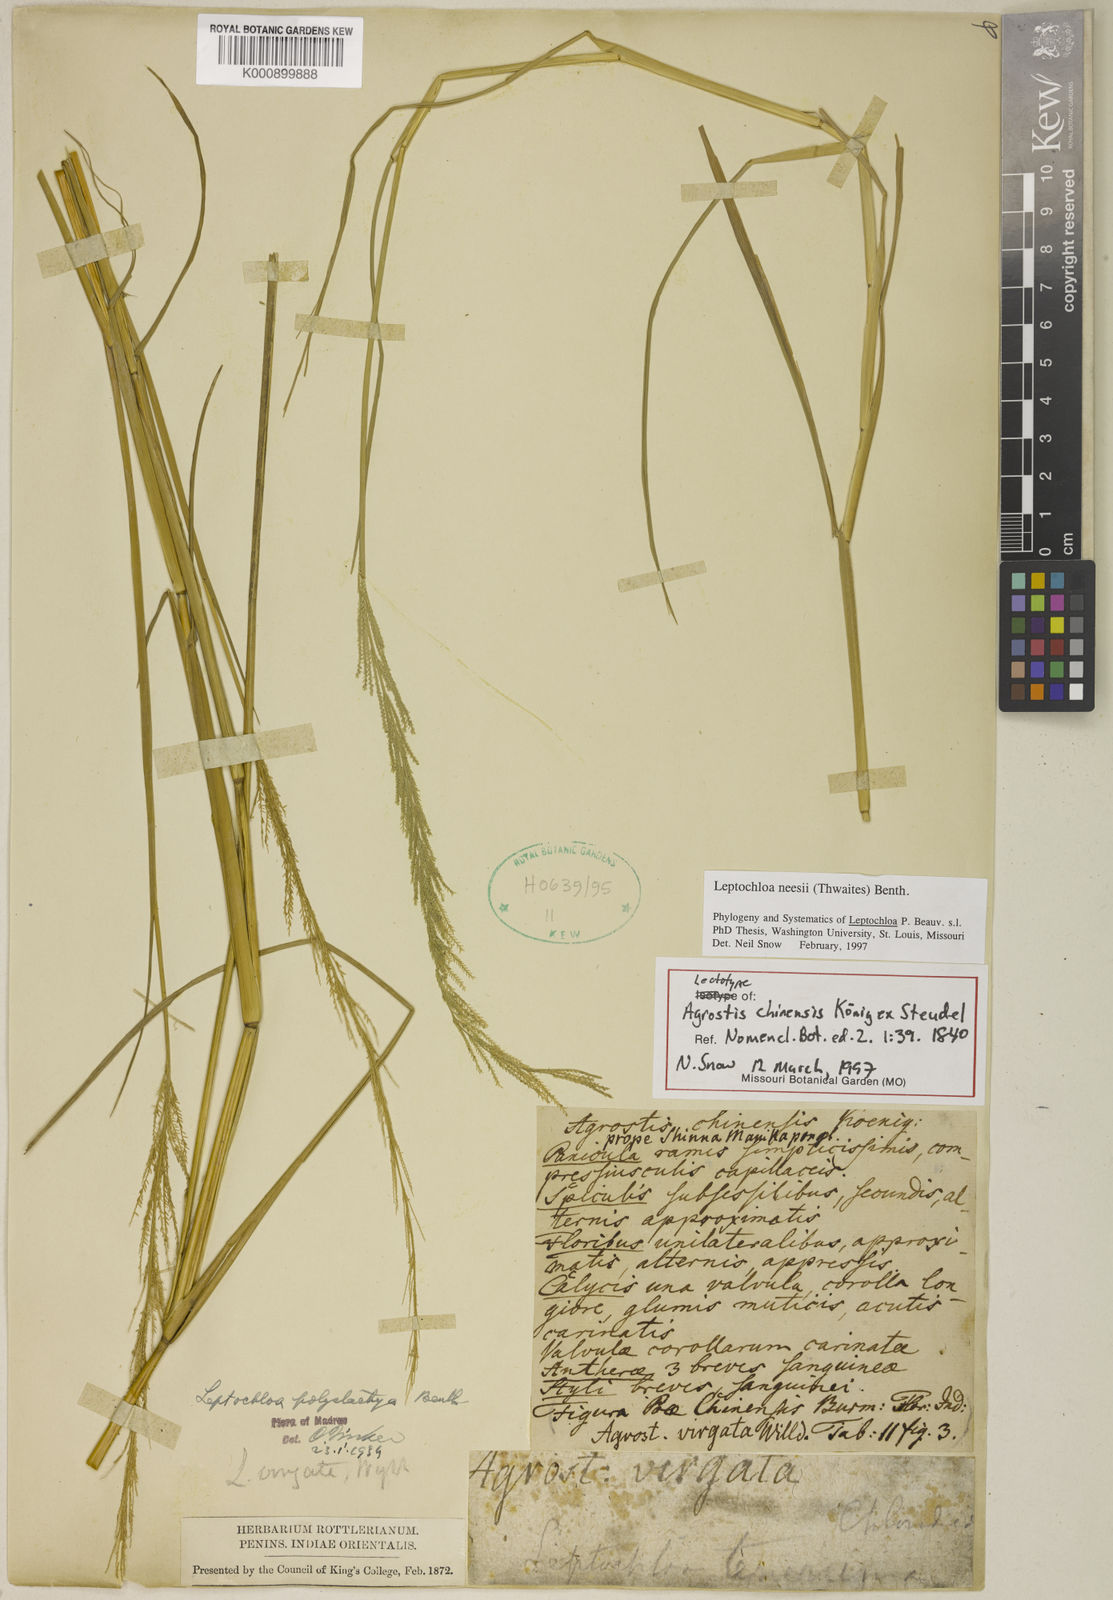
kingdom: Plantae
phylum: Tracheophyta
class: Liliopsida
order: Poales
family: Poaceae
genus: Dinebra
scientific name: Dinebra polystachyos
